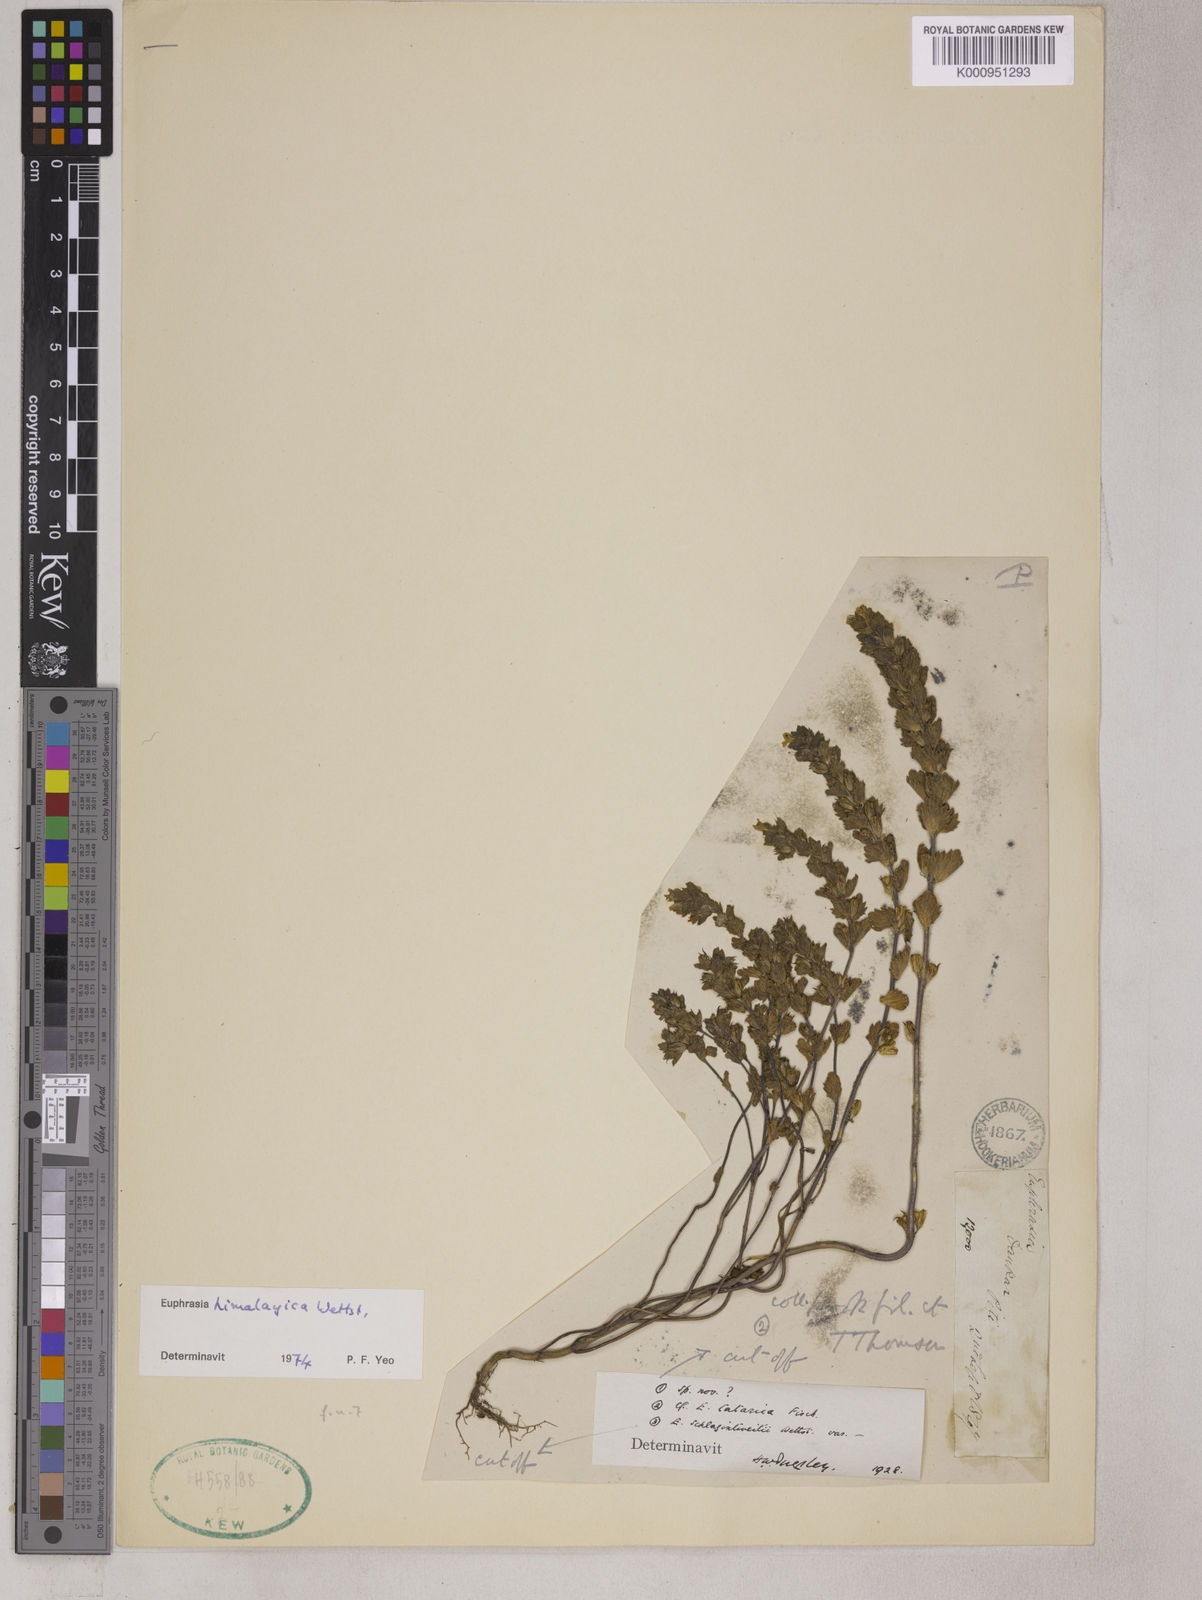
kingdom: Plantae
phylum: Tracheophyta
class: Magnoliopsida
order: Lamiales
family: Orobanchaceae
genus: Euphrasia
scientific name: Euphrasia himalayica
